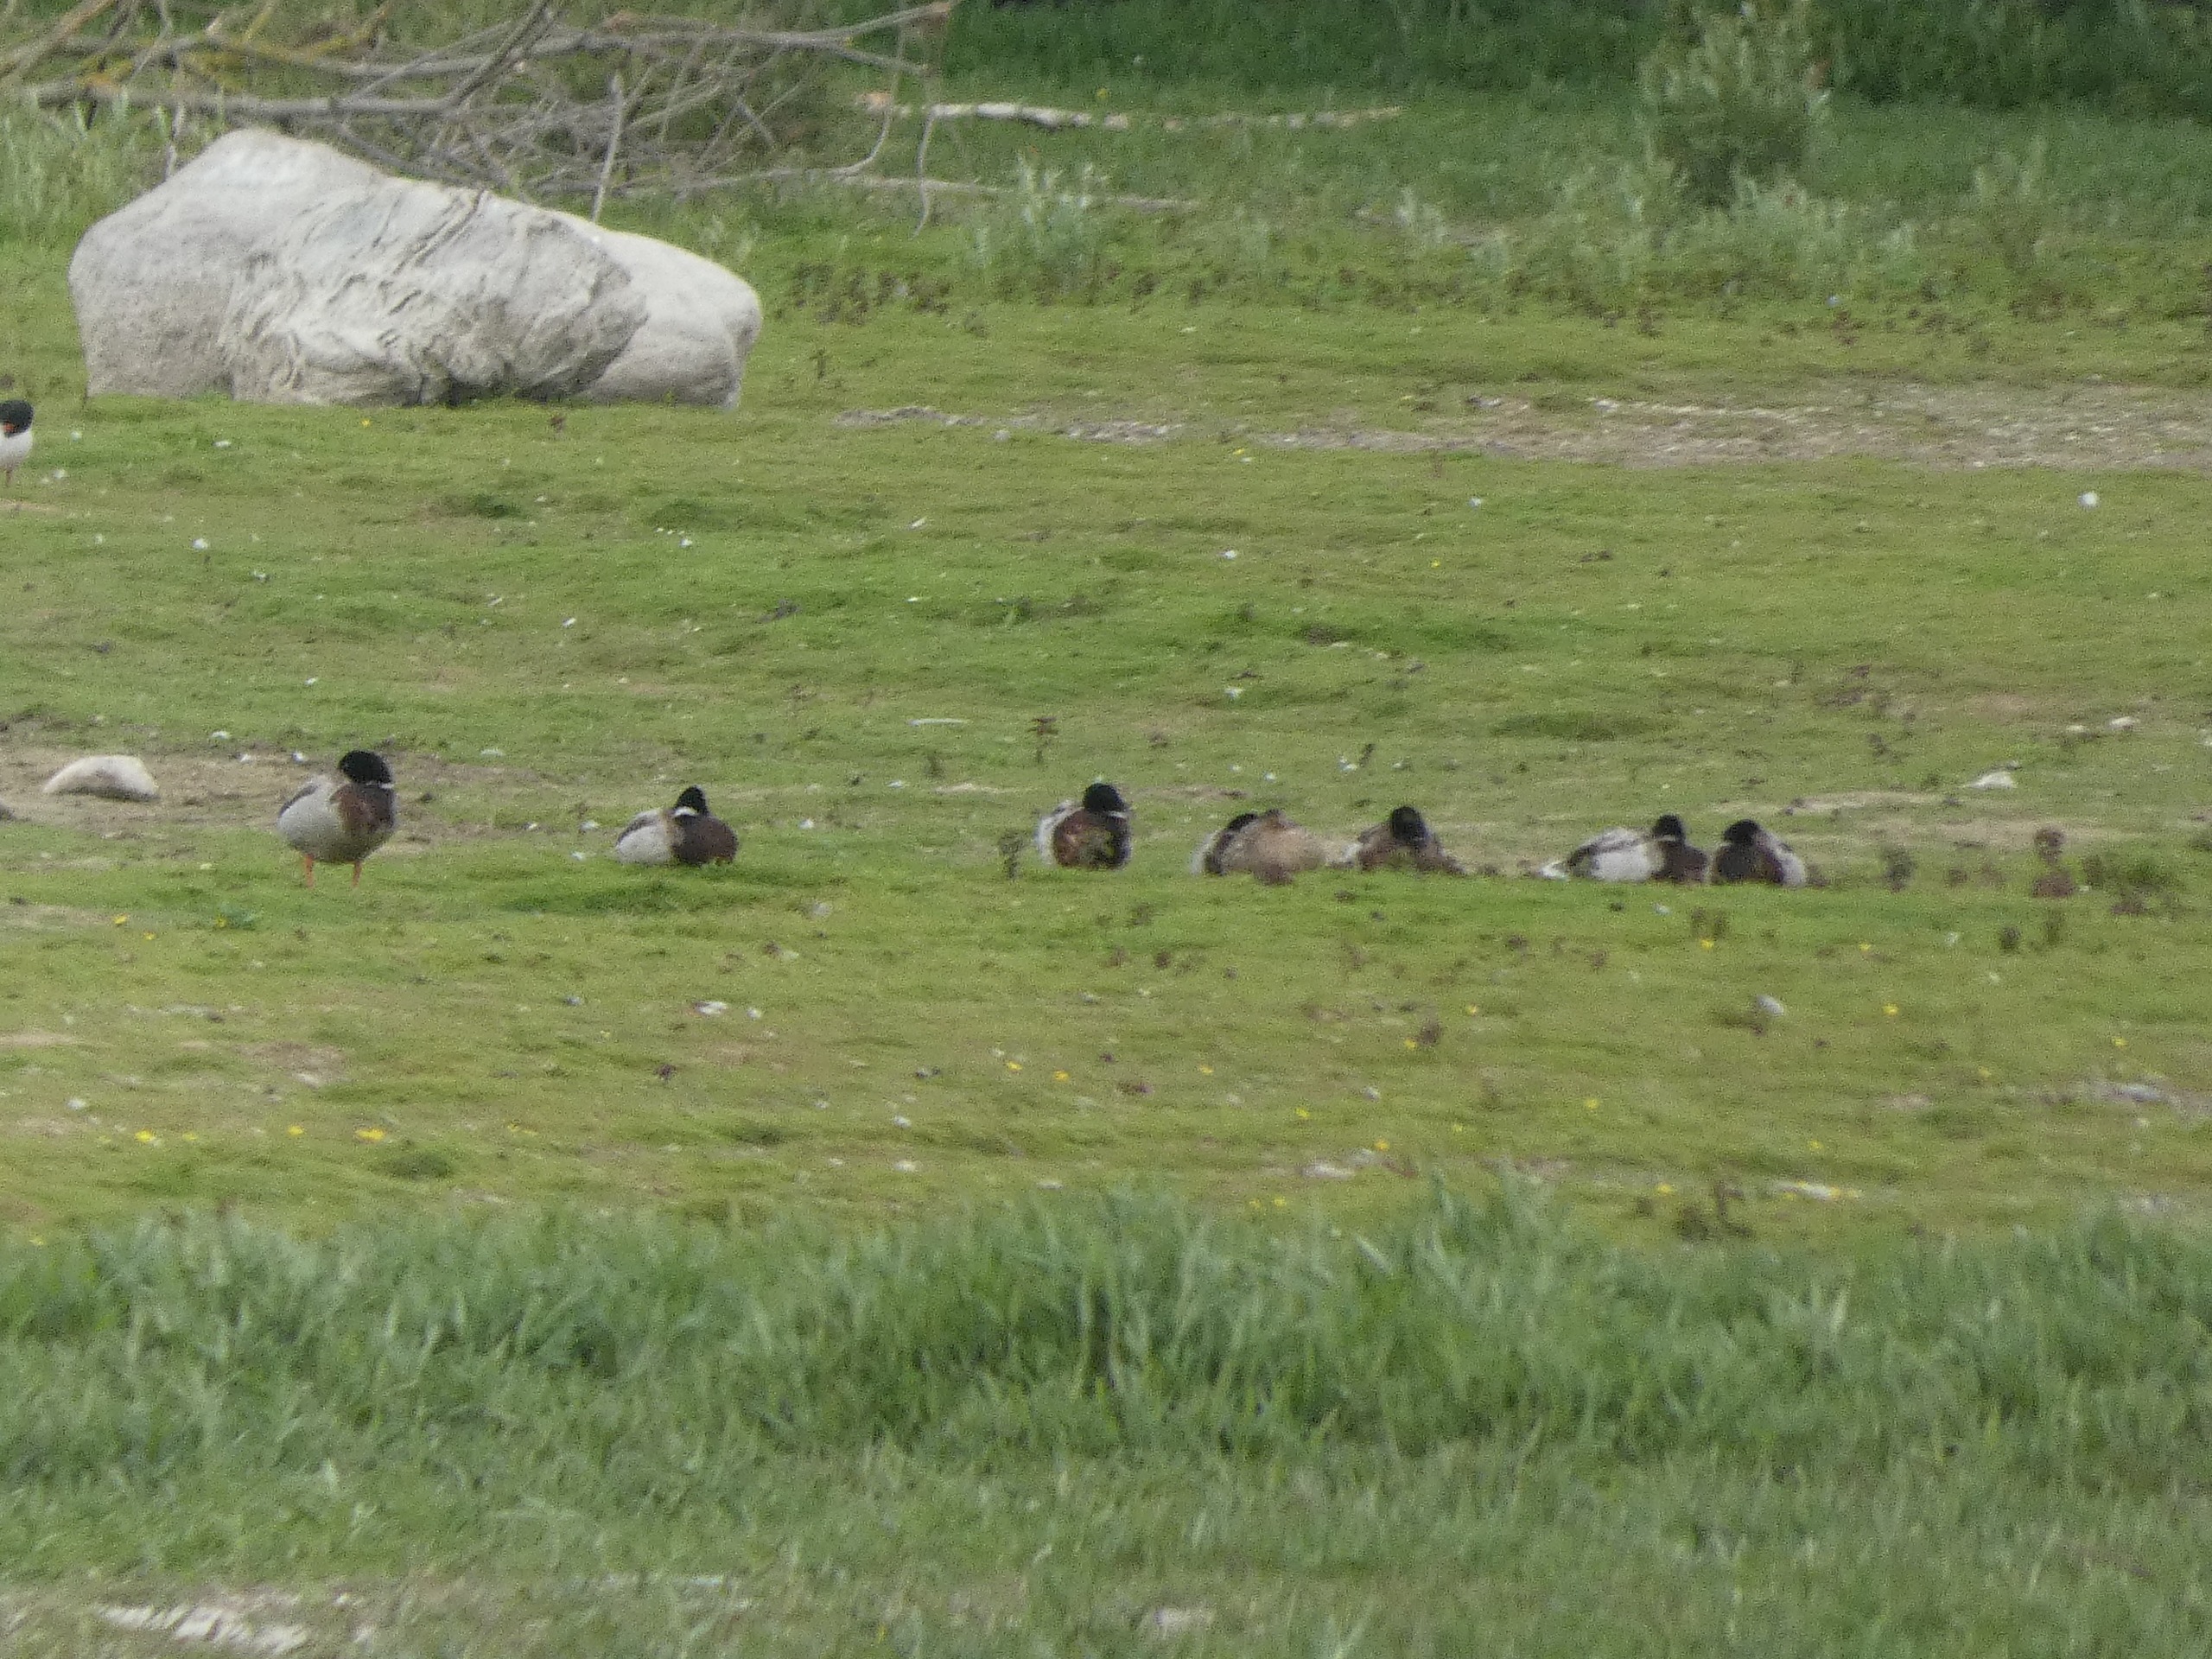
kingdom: Animalia
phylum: Chordata
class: Aves
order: Anseriformes
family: Anatidae
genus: Anas
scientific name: Anas platyrhynchos
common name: Gråand
